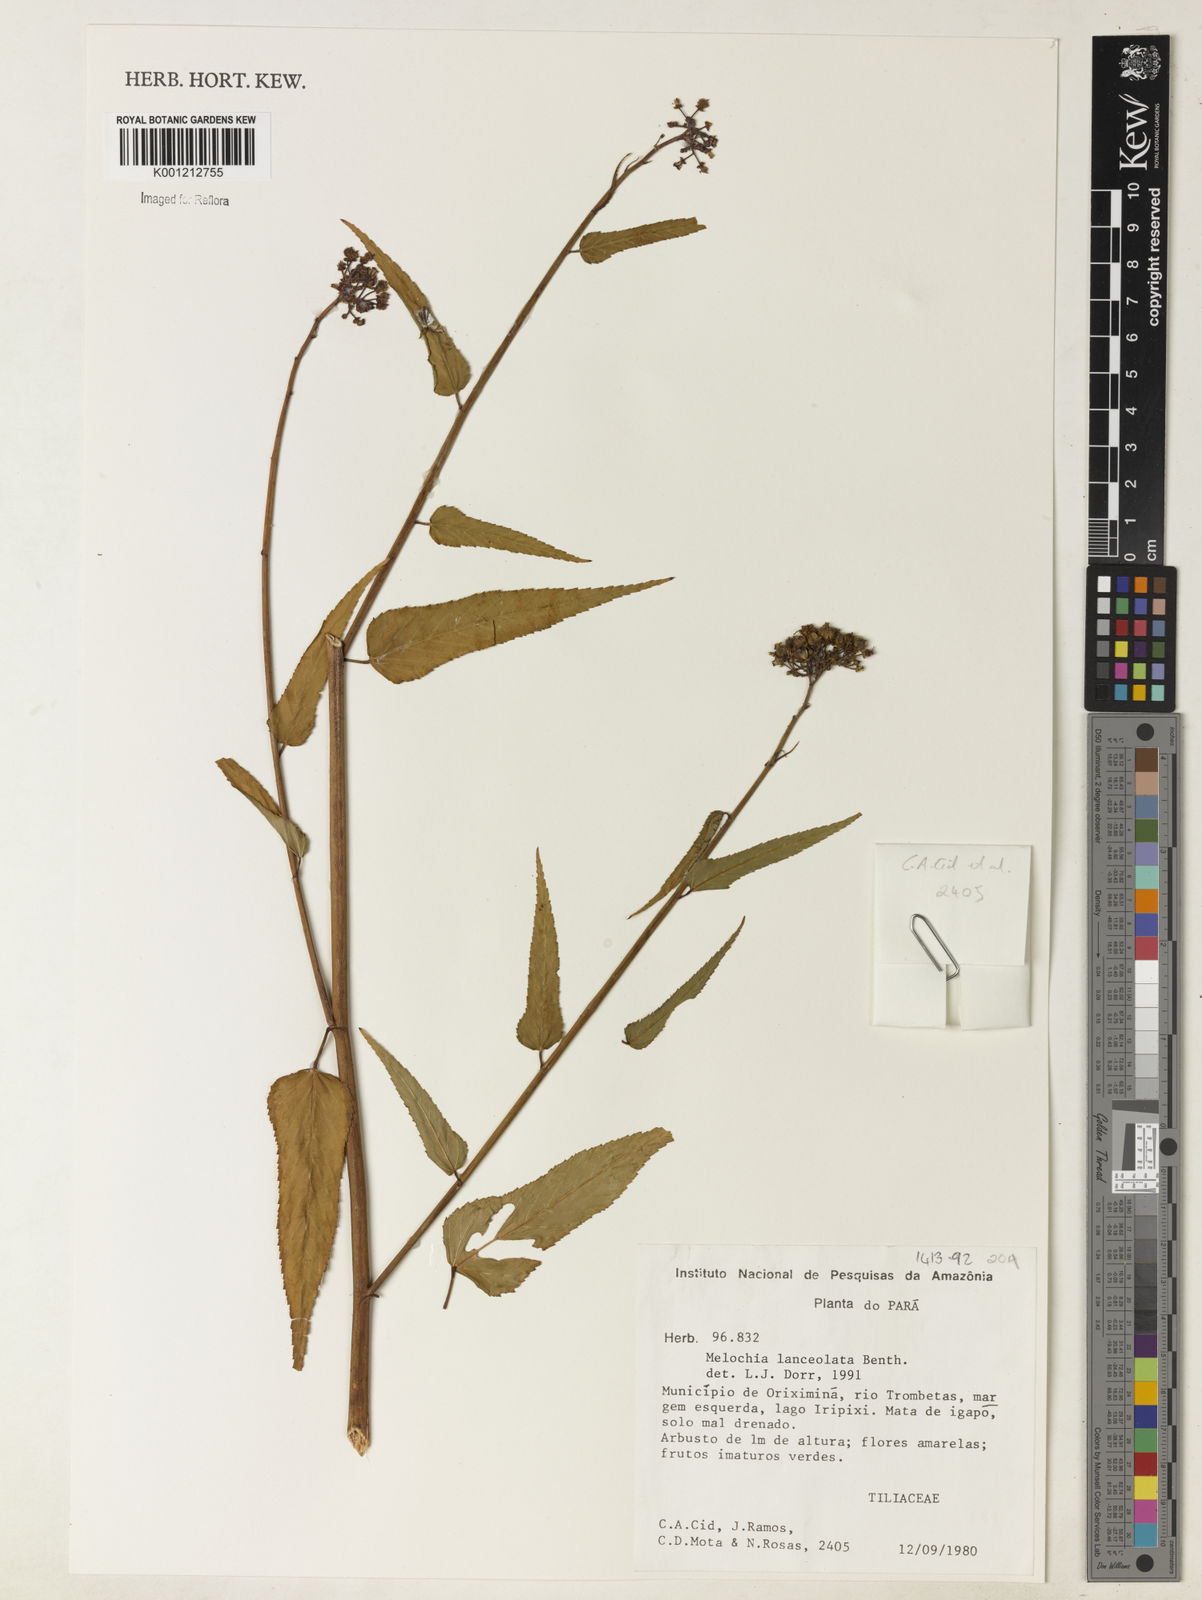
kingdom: Plantae
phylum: Tracheophyta
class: Magnoliopsida
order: Malvales
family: Malvaceae
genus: Melochia
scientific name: Melochia lanceolata
